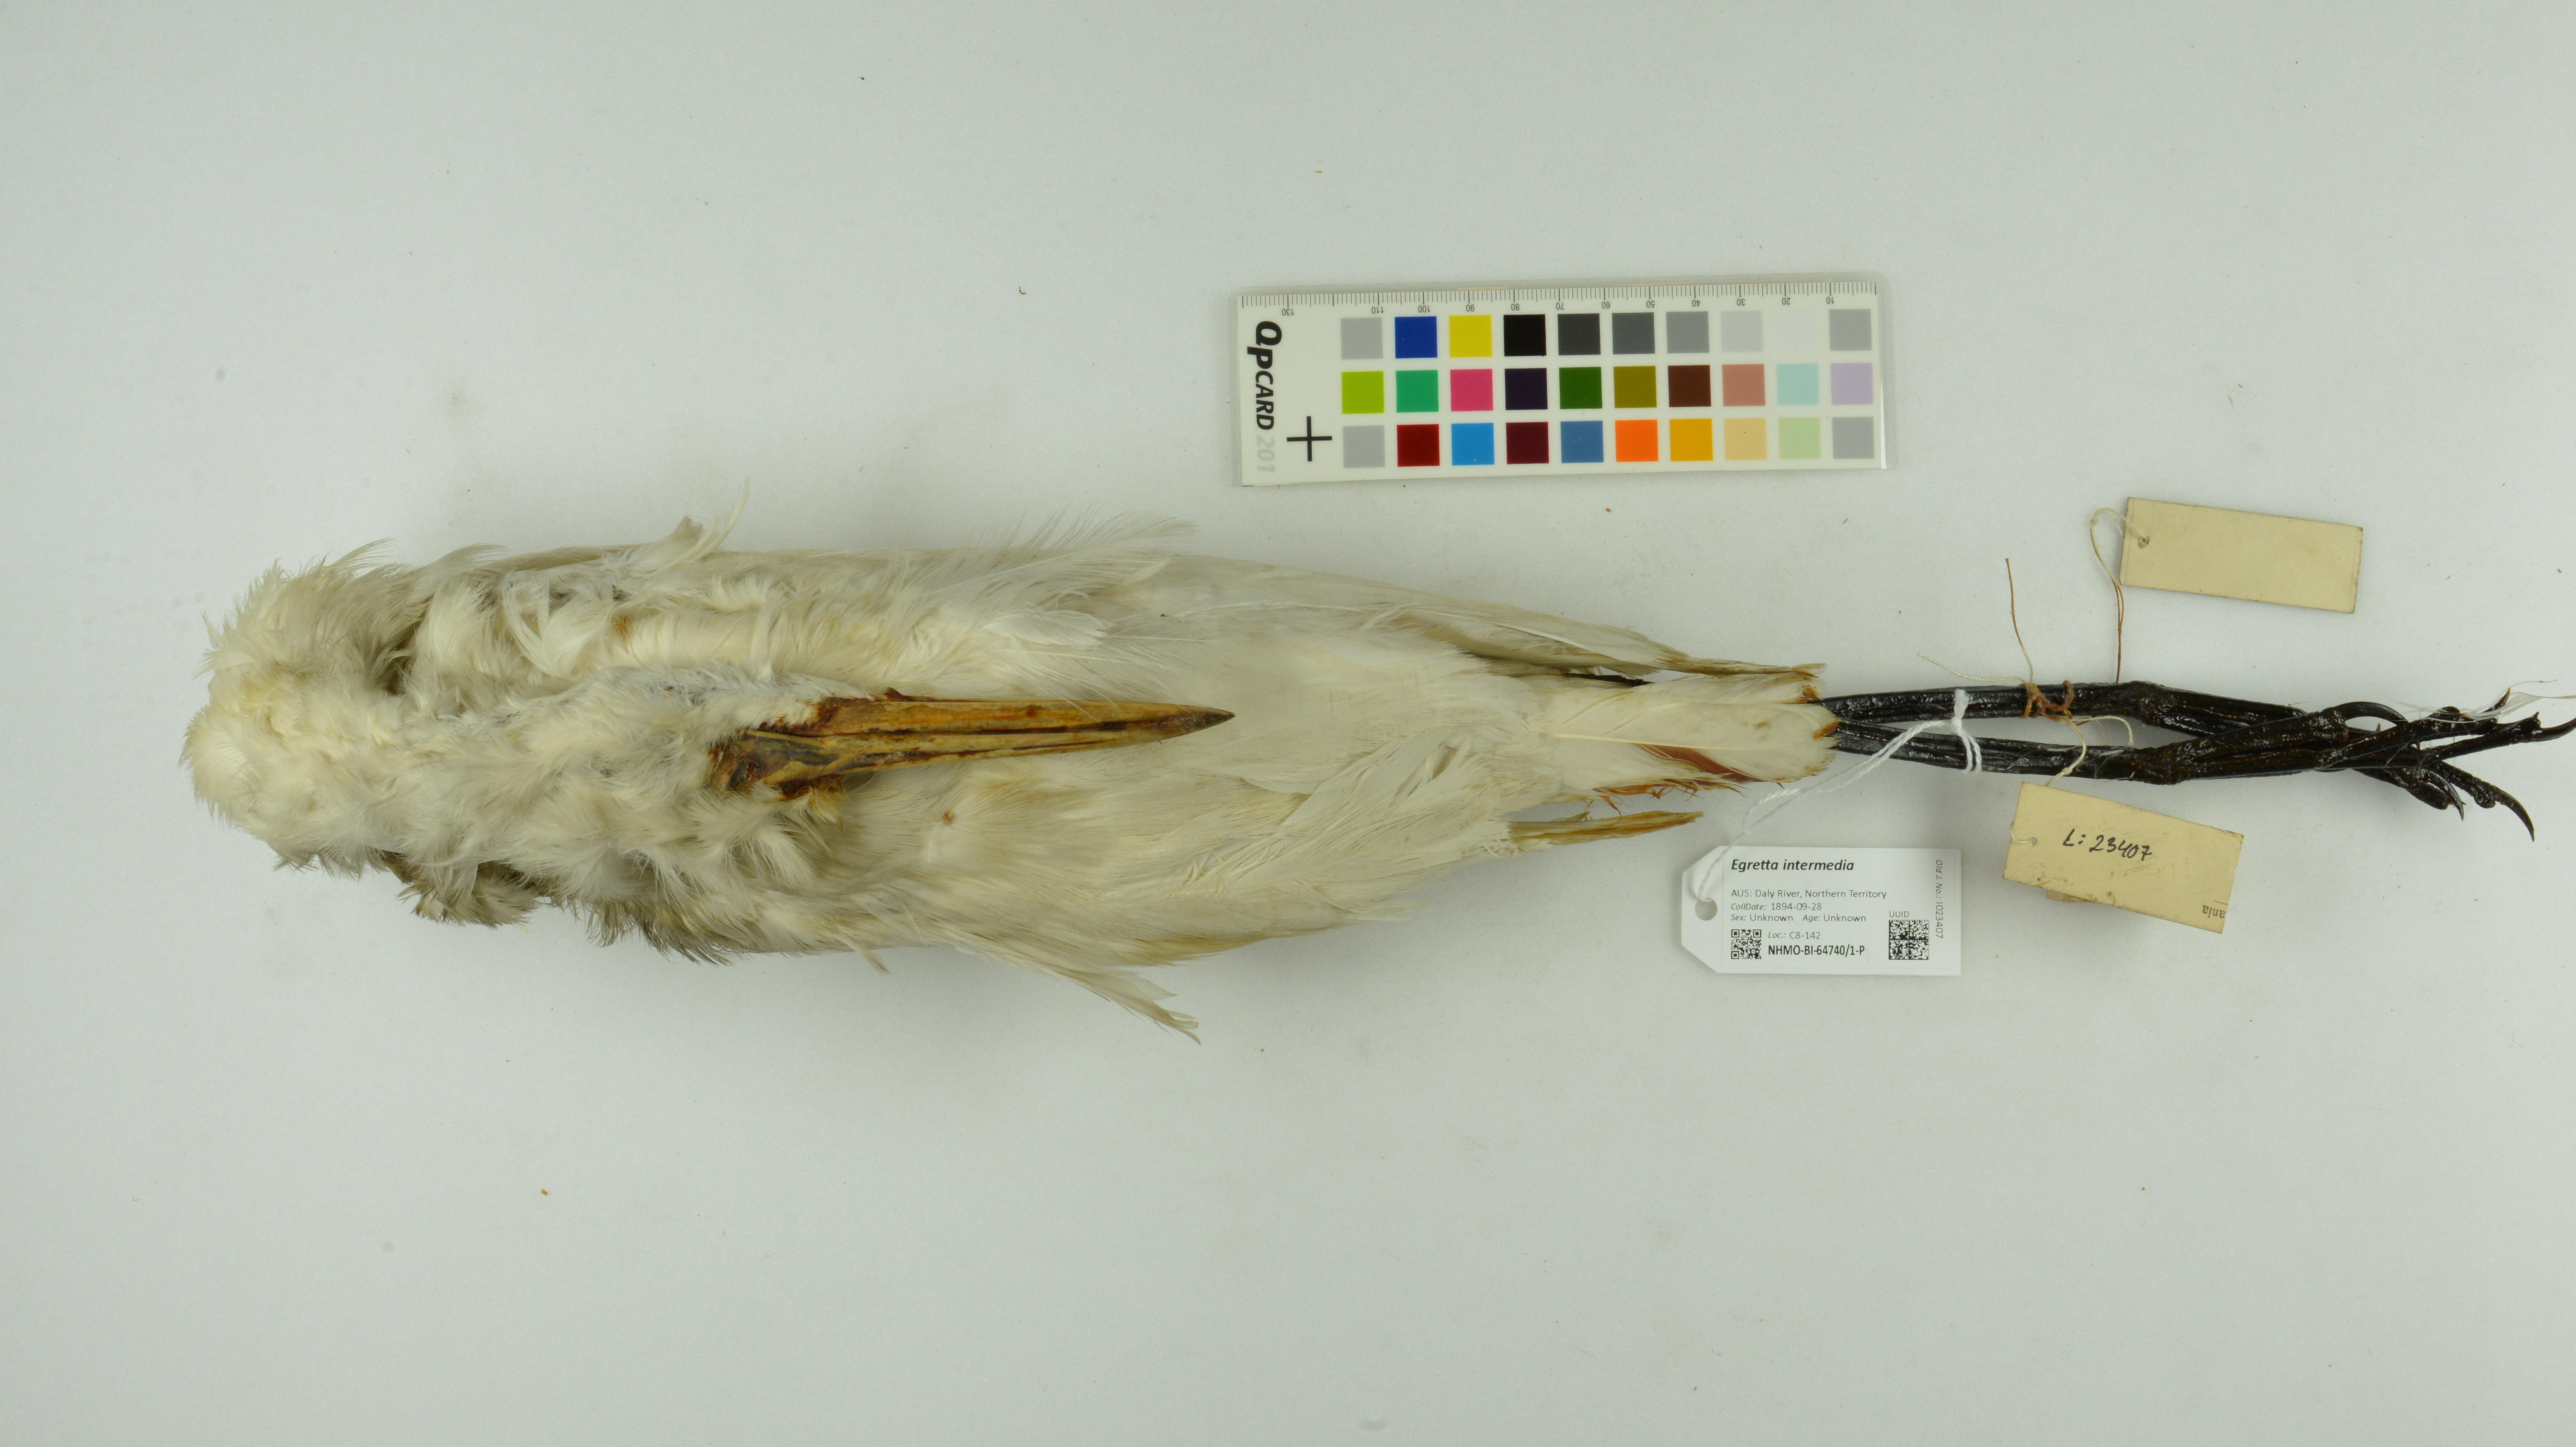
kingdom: Animalia
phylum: Chordata
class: Aves
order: Pelecaniformes
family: Ardeidae
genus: Egretta
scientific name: Egretta intermedia
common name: Intermediate egret
